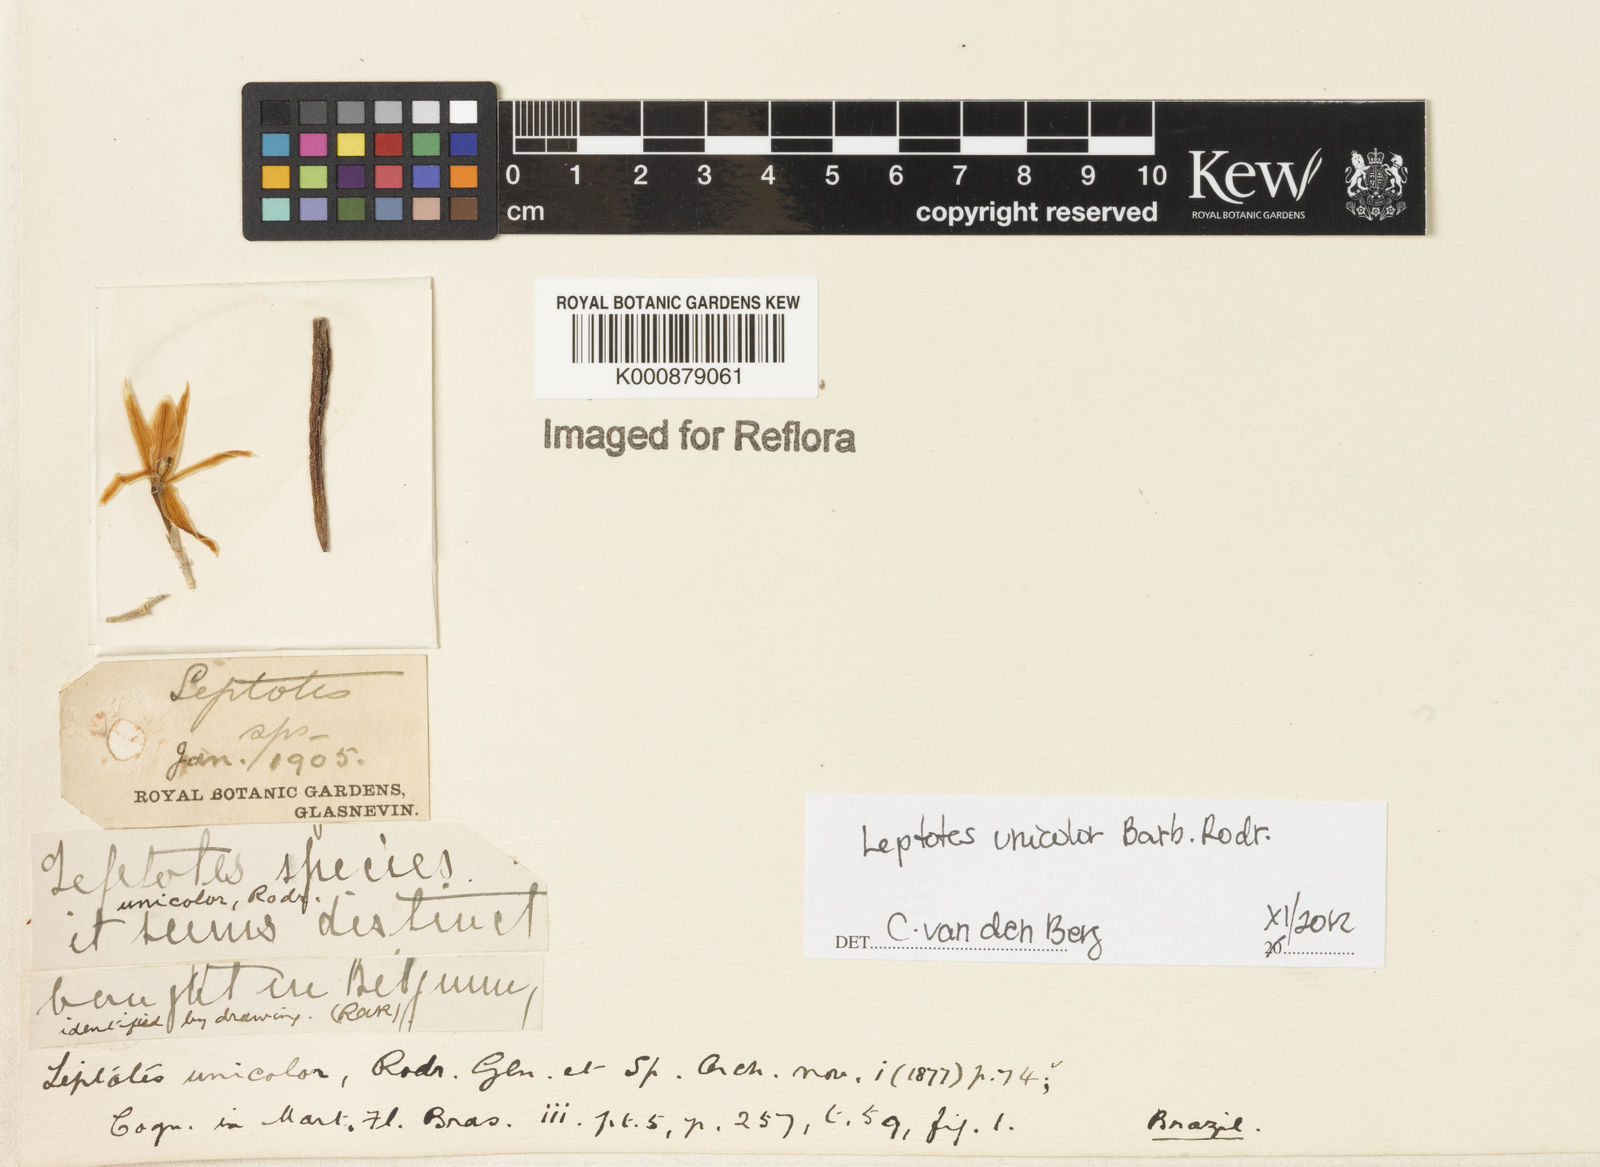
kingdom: Plantae
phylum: Tracheophyta
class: Liliopsida
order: Asparagales
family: Orchidaceae
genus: Leptotes
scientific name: Leptotes unicolor
